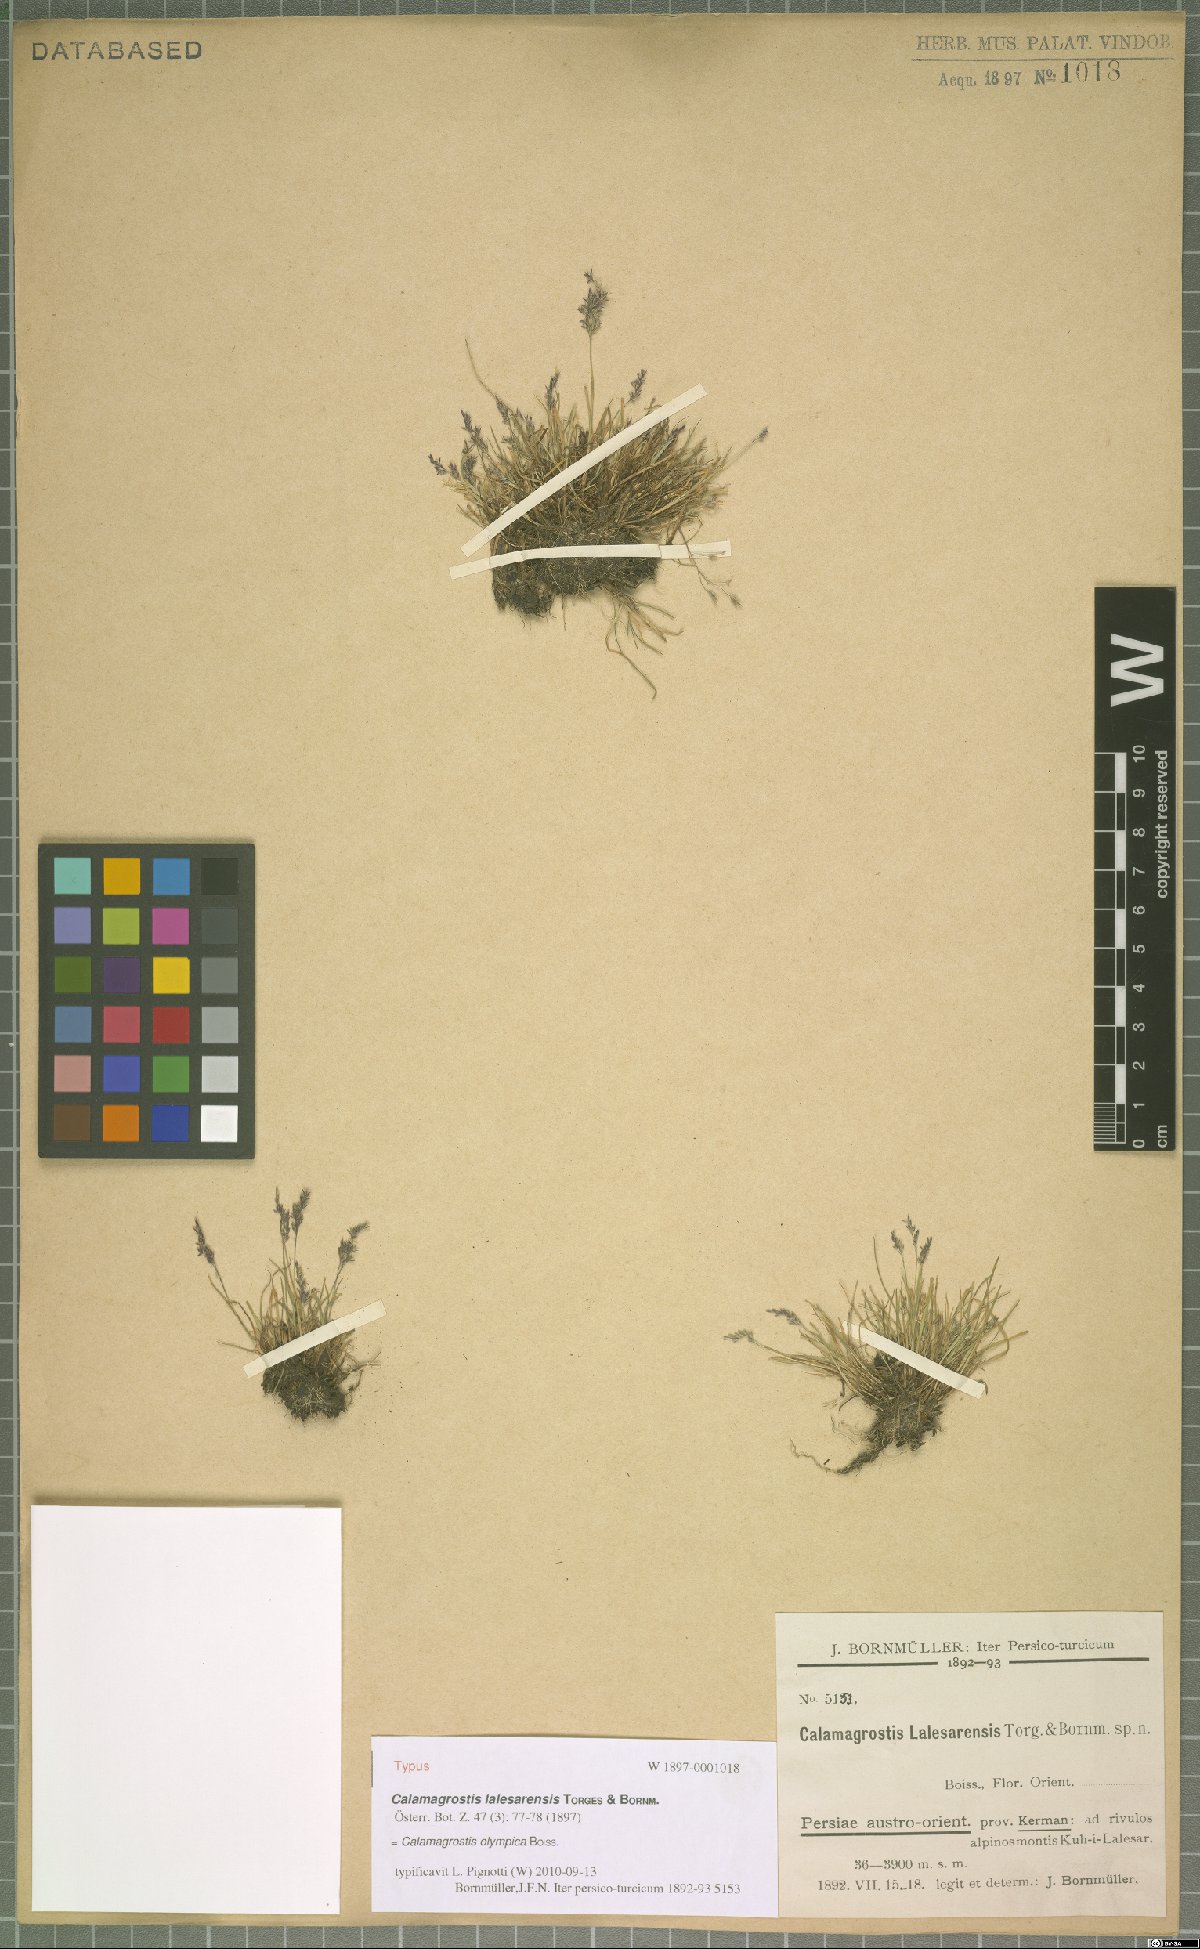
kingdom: Plantae
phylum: Tracheophyta
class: Liliopsida
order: Poales
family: Poaceae
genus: Agrostis
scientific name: Agrostis olympica
